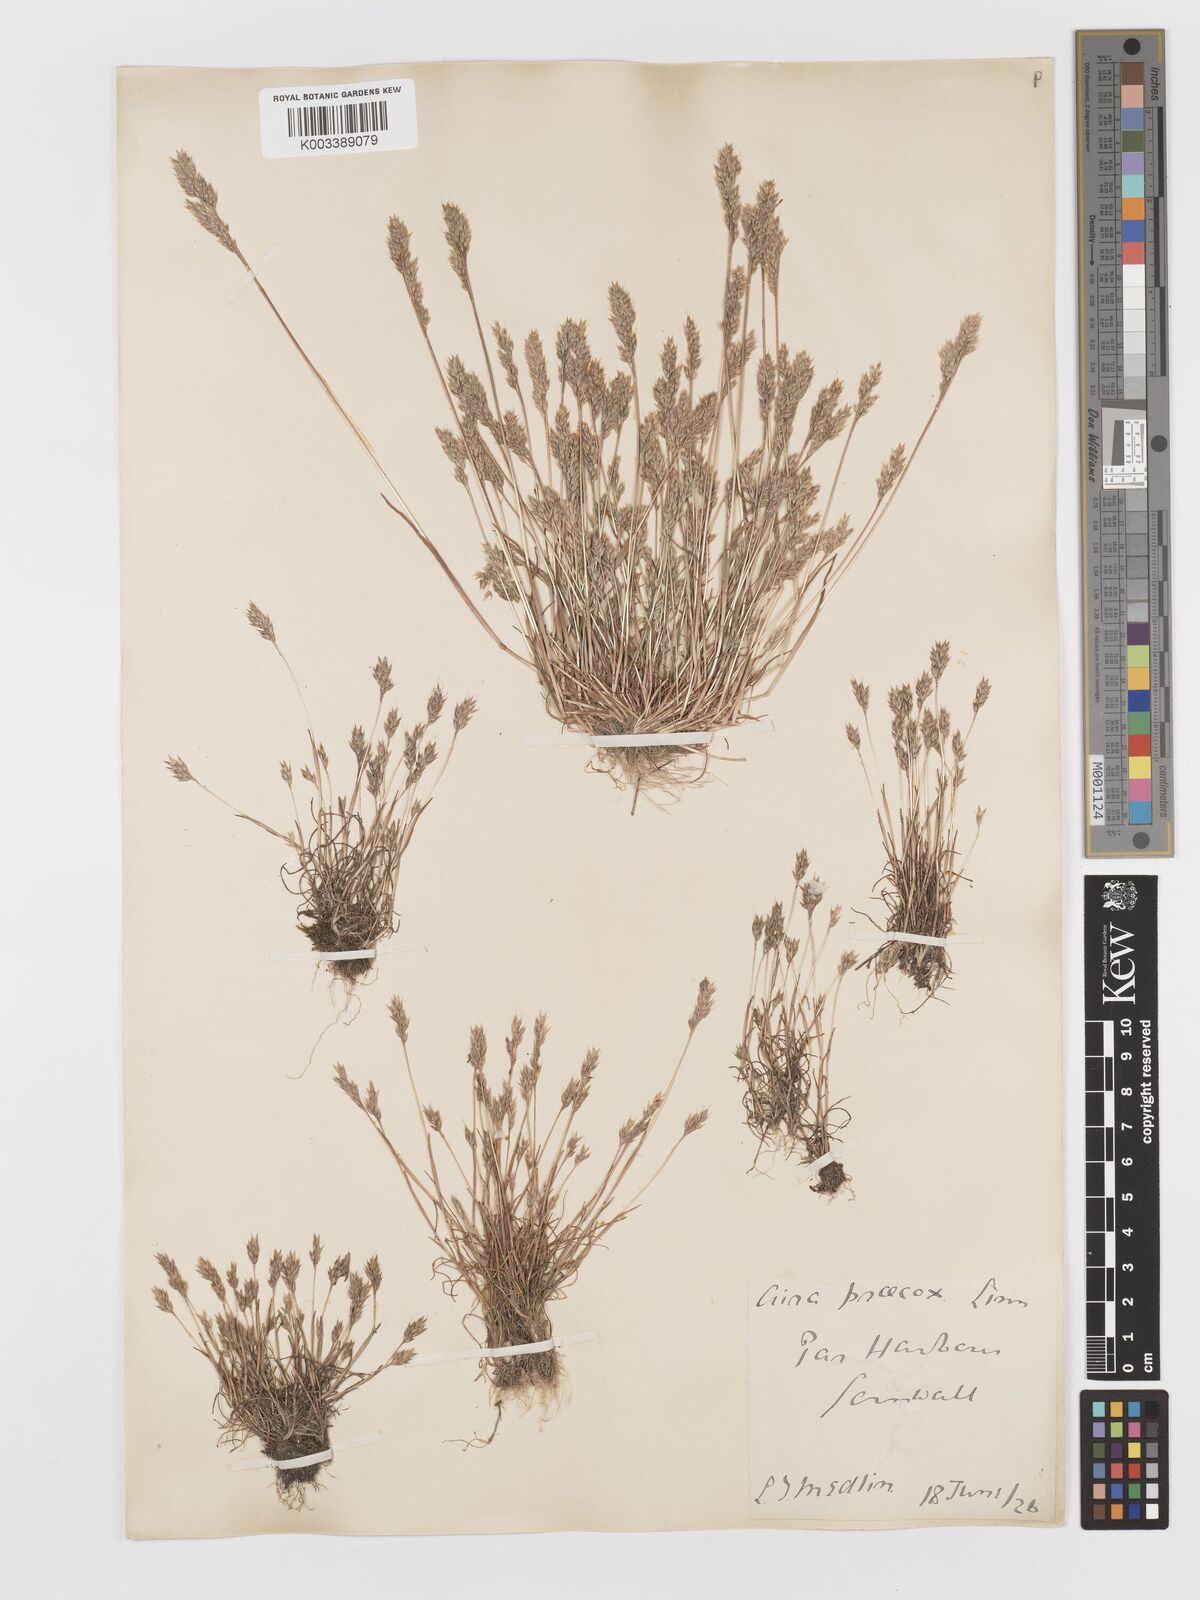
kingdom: Plantae
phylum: Tracheophyta
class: Liliopsida
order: Poales
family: Poaceae
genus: Aira
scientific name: Aira praecox
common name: Early hair-grass
